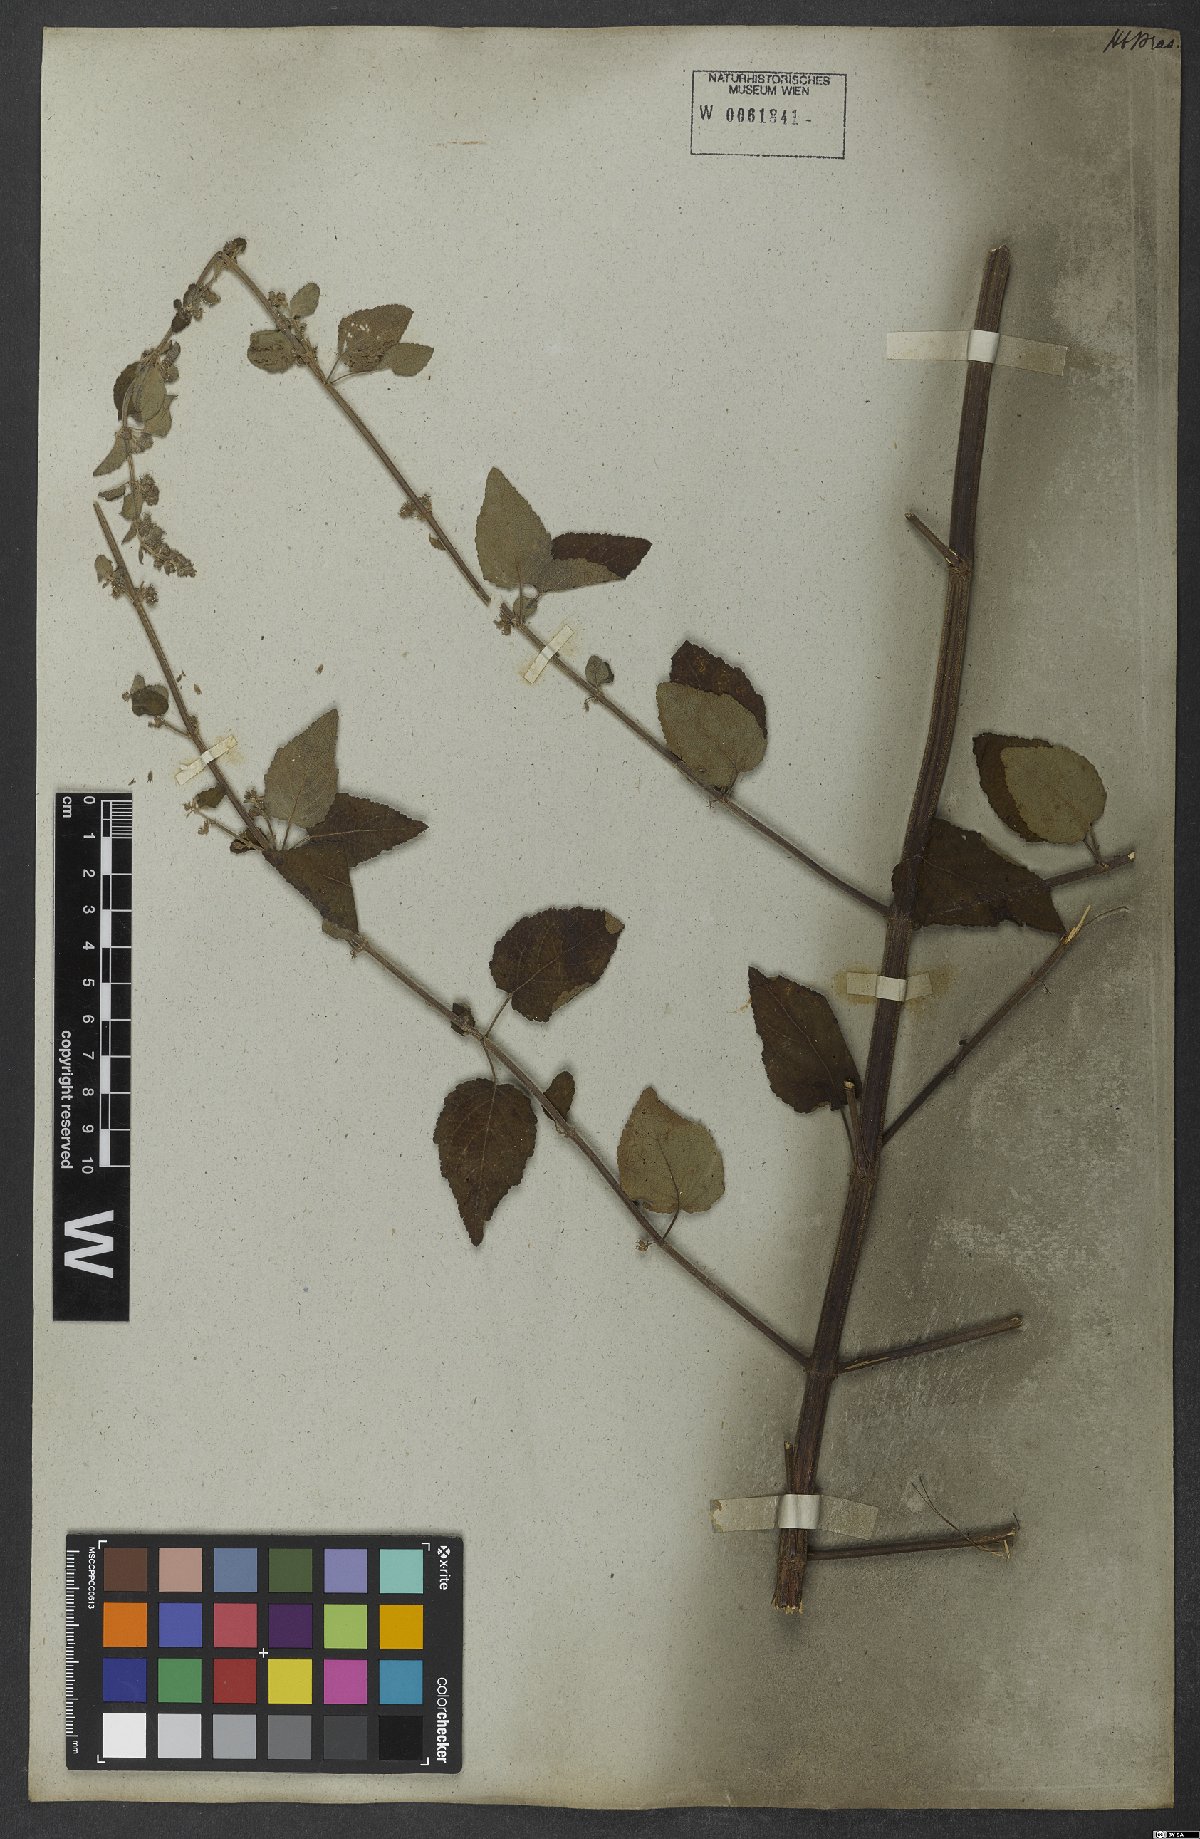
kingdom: Plantae
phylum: Tracheophyta
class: Magnoliopsida
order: Lamiales
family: Lamiaceae
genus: Mesosphaerum
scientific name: Mesosphaerum pectinatum
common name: Comb hyptis
